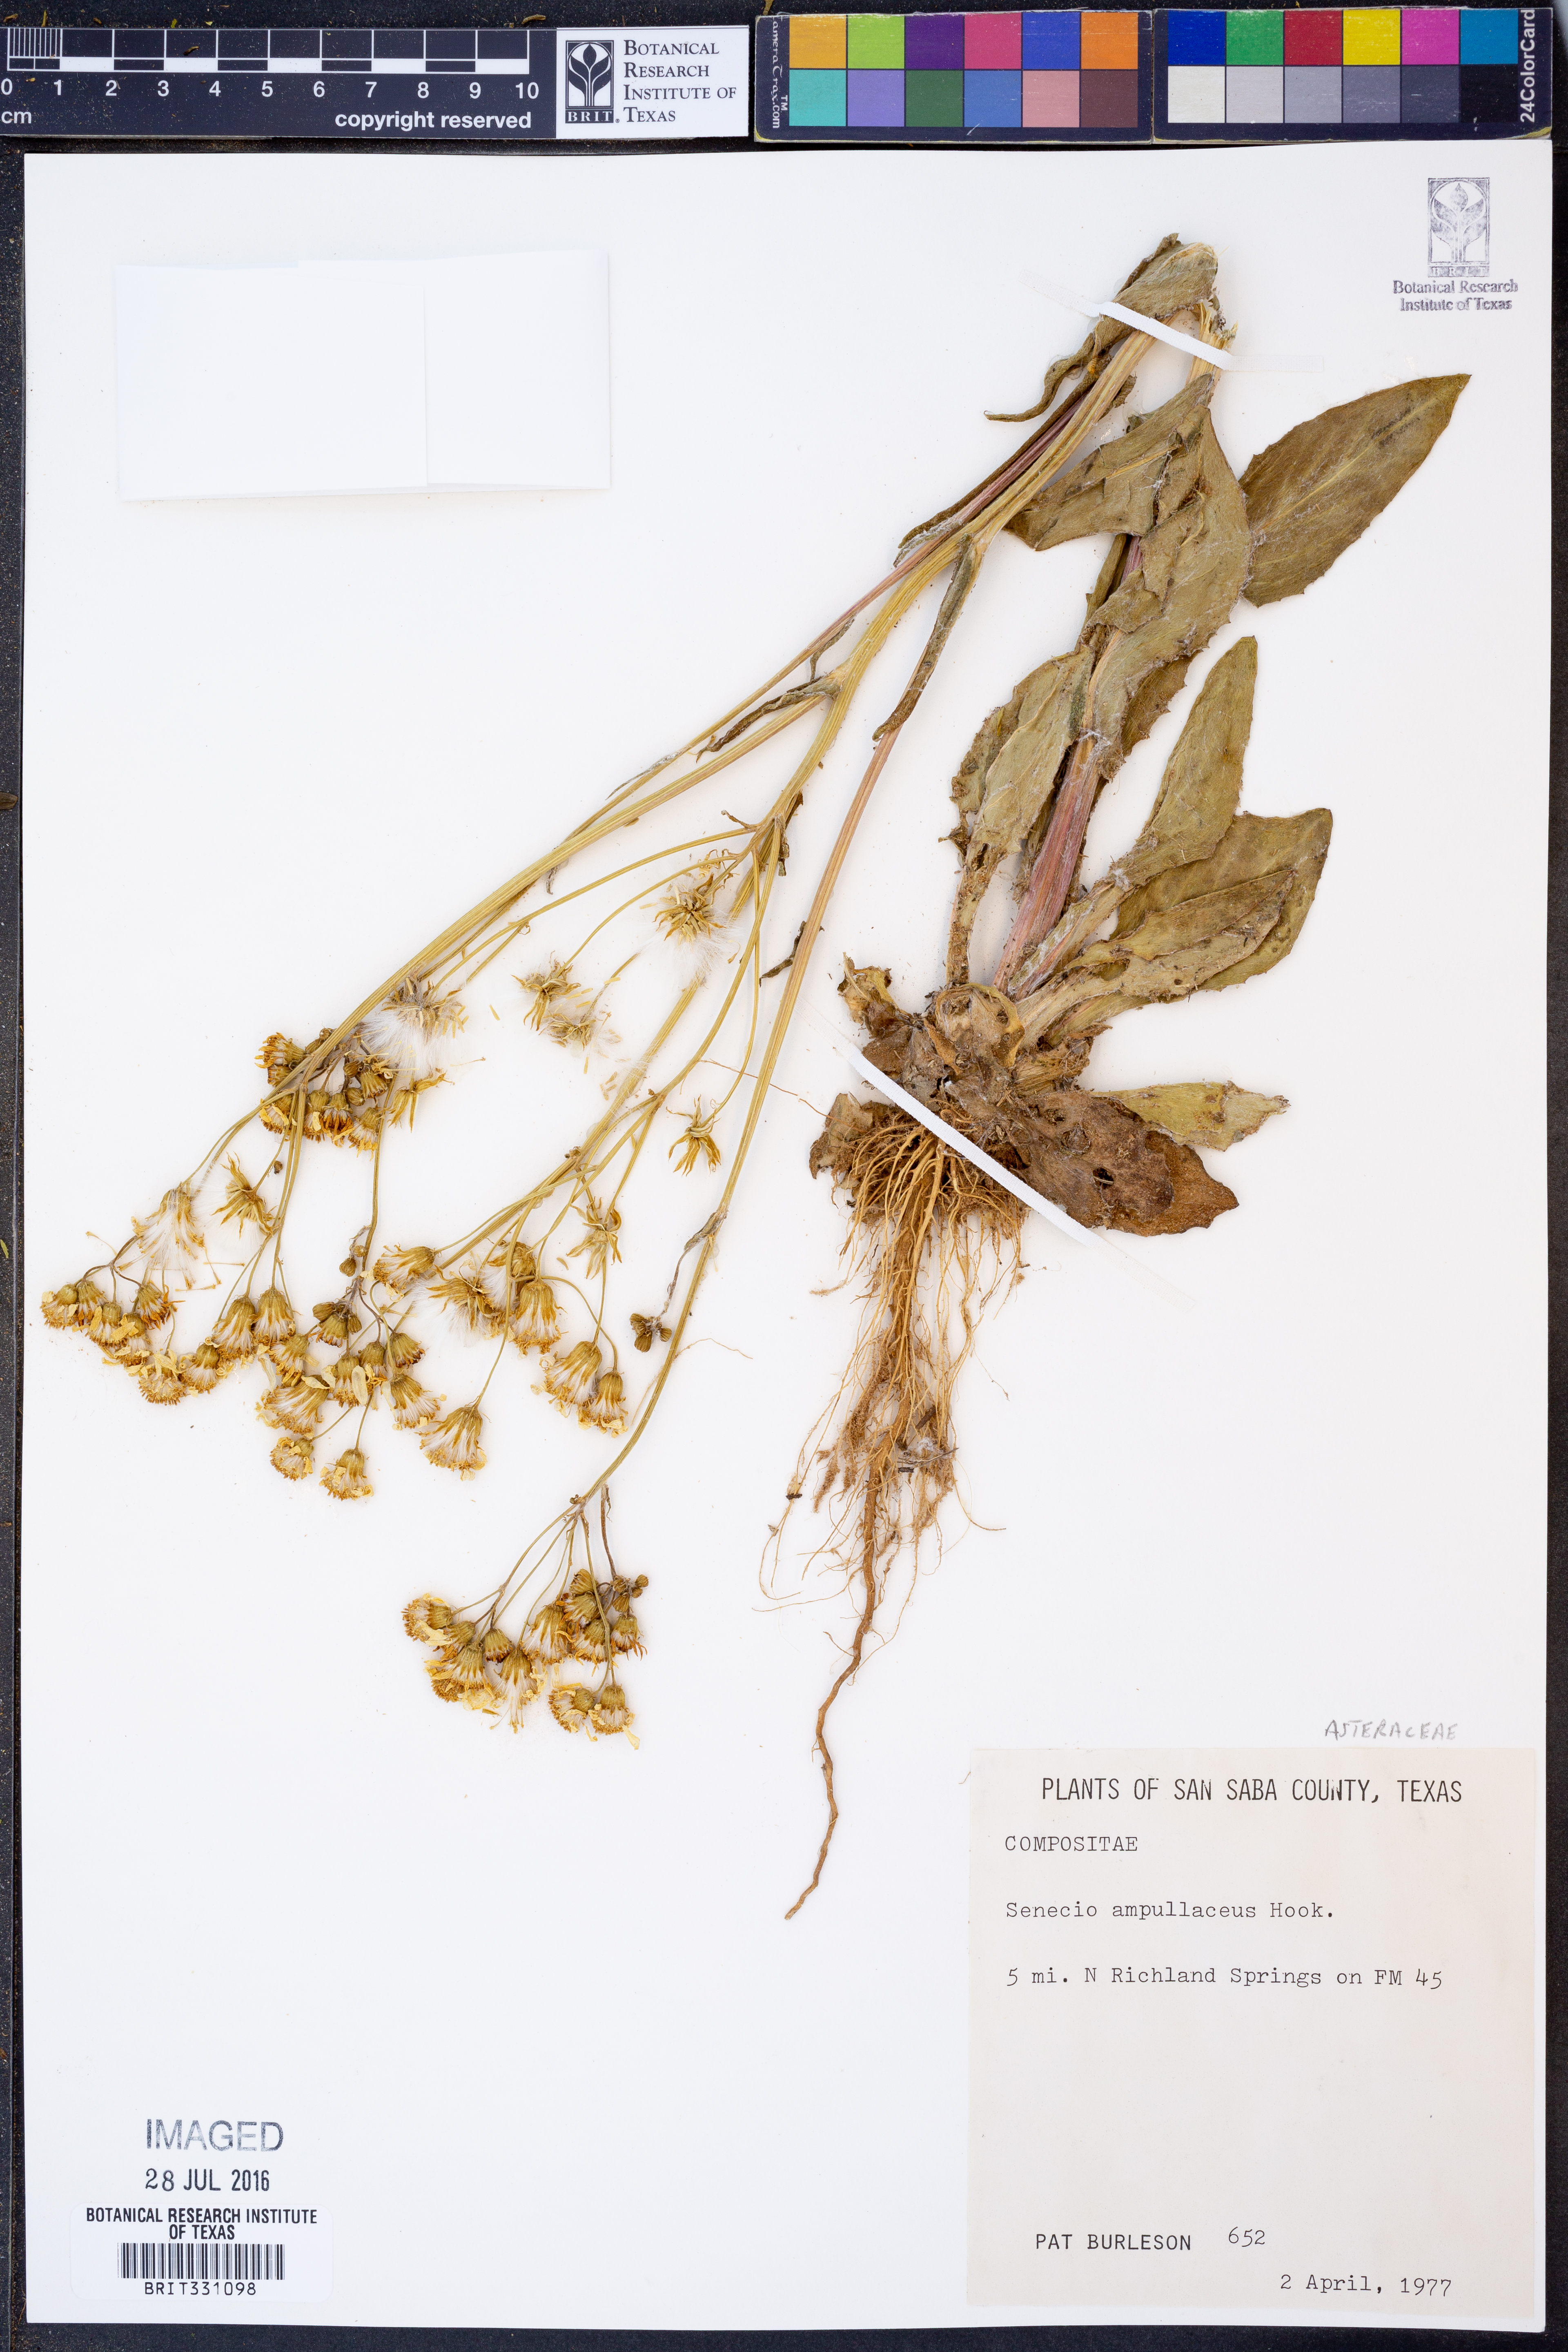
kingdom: Plantae
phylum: Tracheophyta
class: Magnoliopsida
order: Asterales
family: Asteraceae
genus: Senecio
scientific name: Senecio ampullaceus
